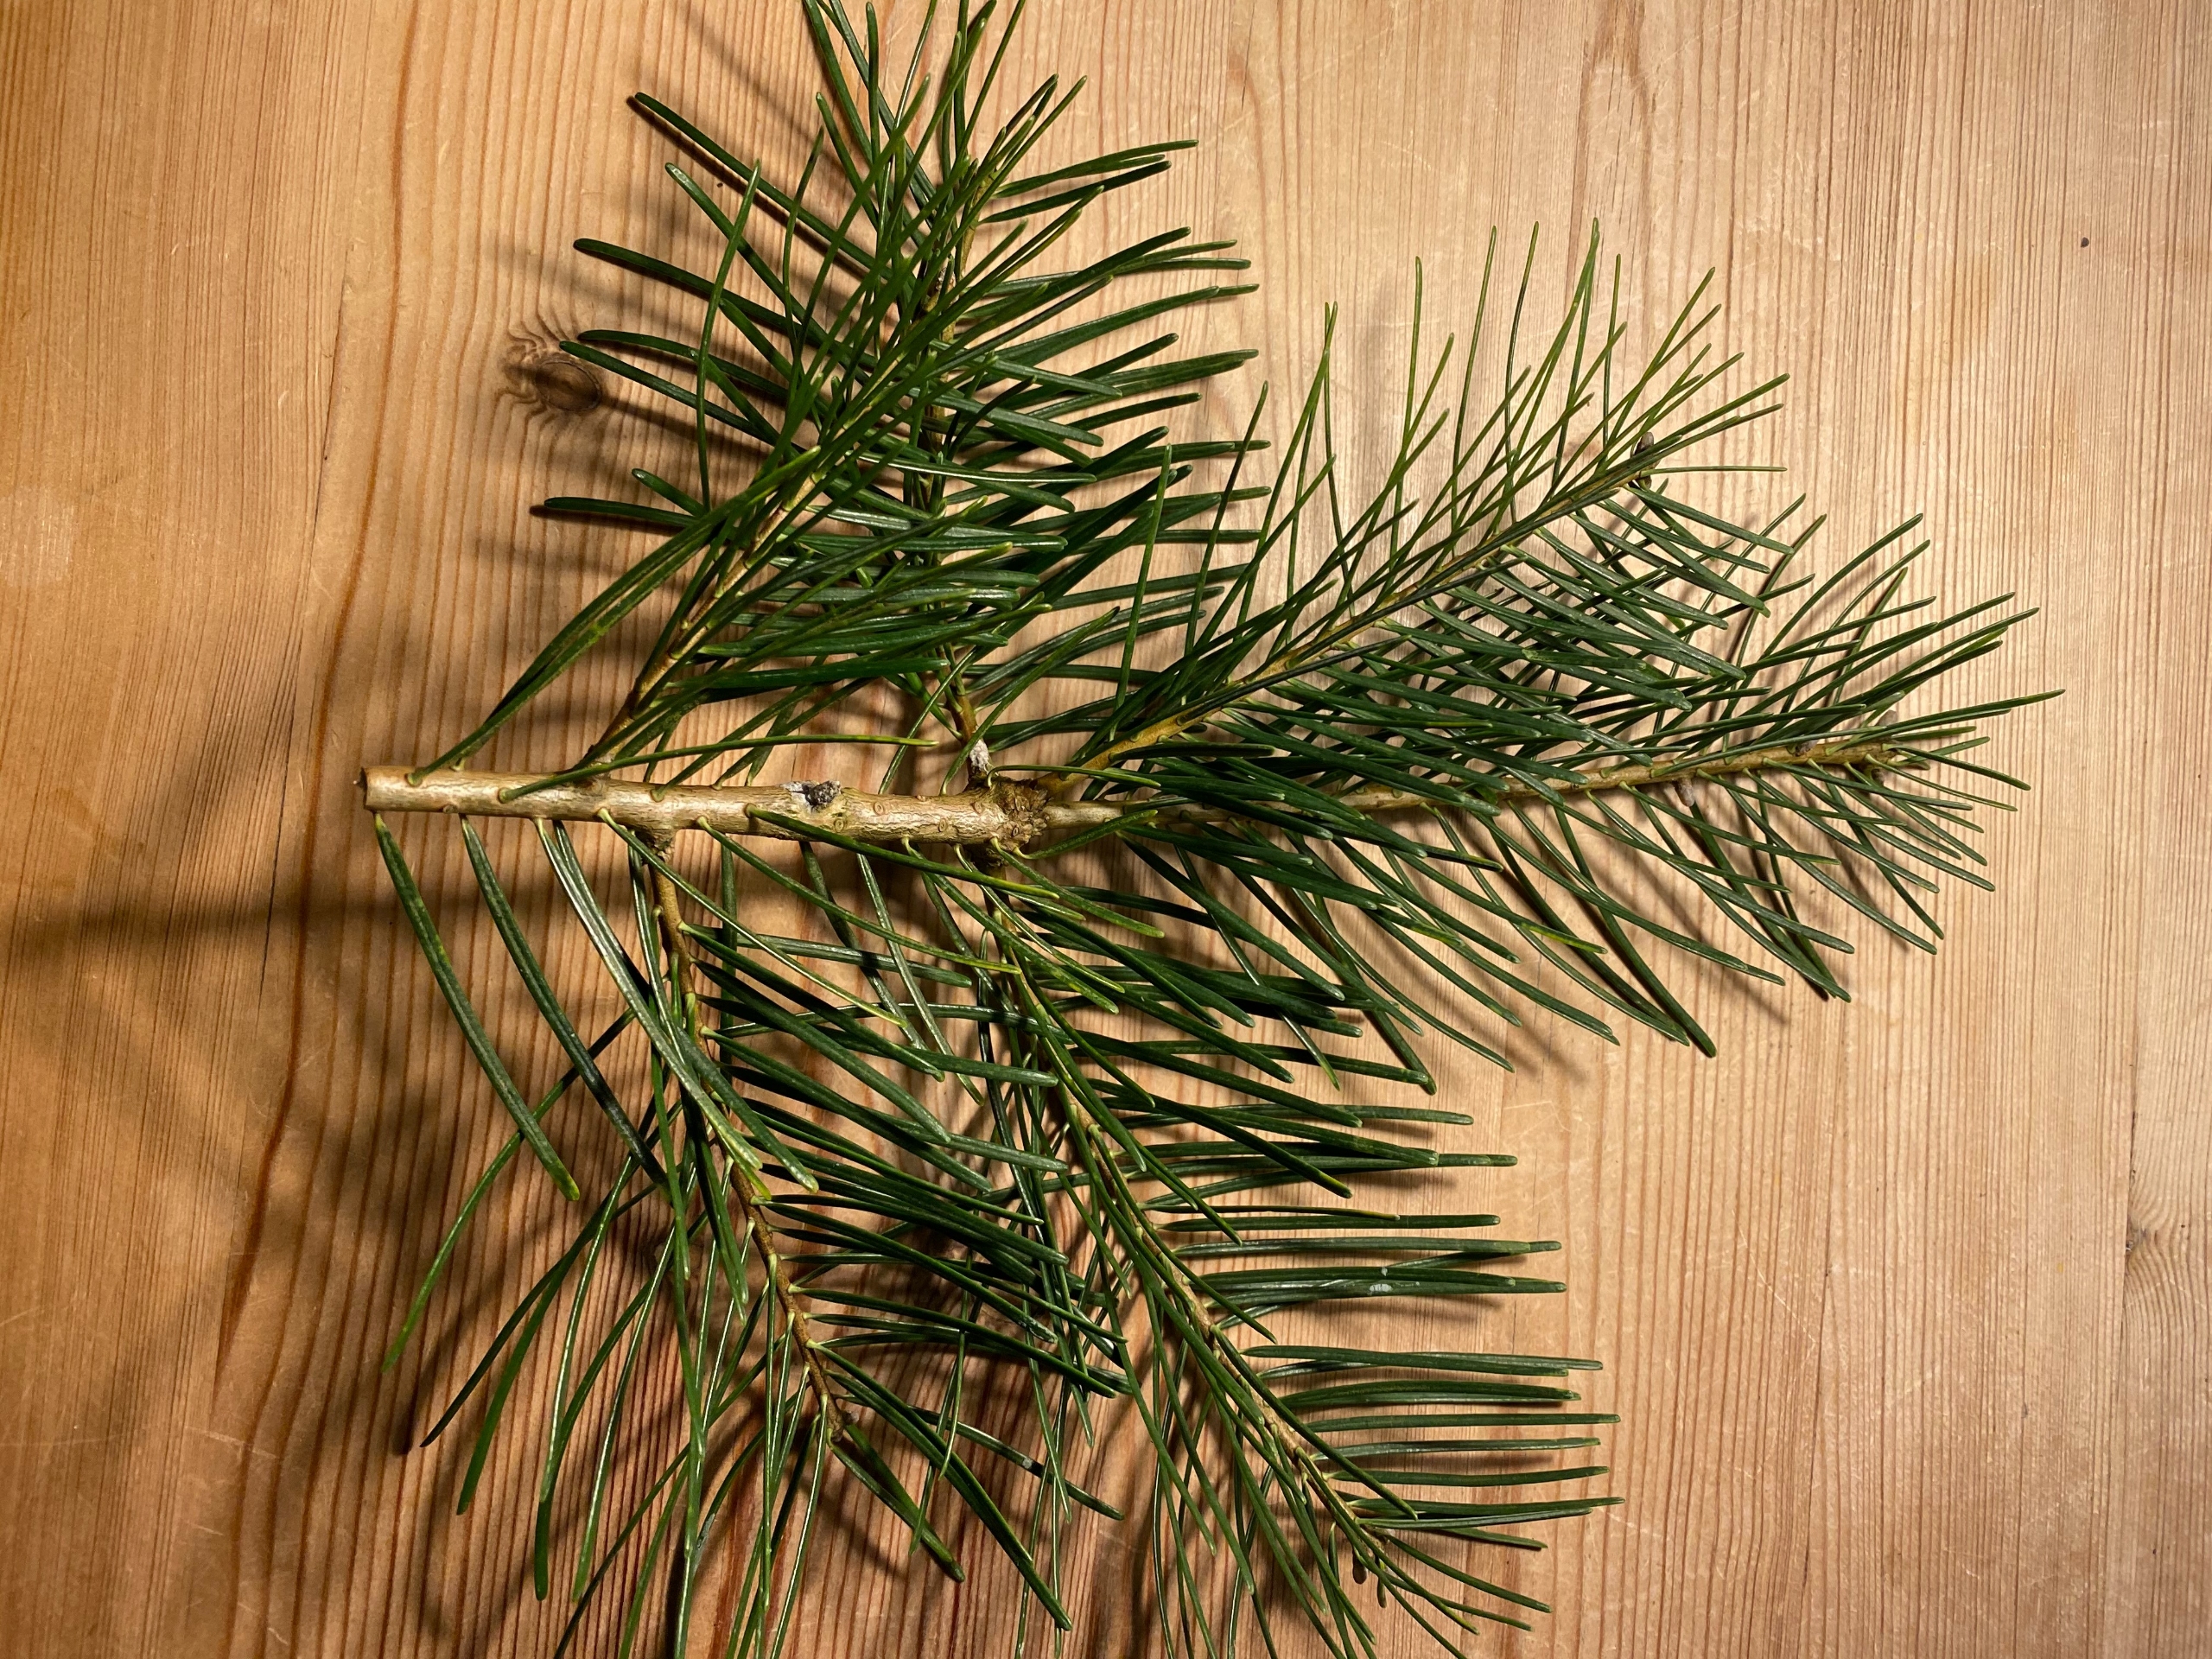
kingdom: Plantae
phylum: Tracheophyta
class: Pinopsida
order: Pinales
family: Pinaceae
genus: Abies
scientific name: Abies concolor
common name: Langnålet ædelgran
